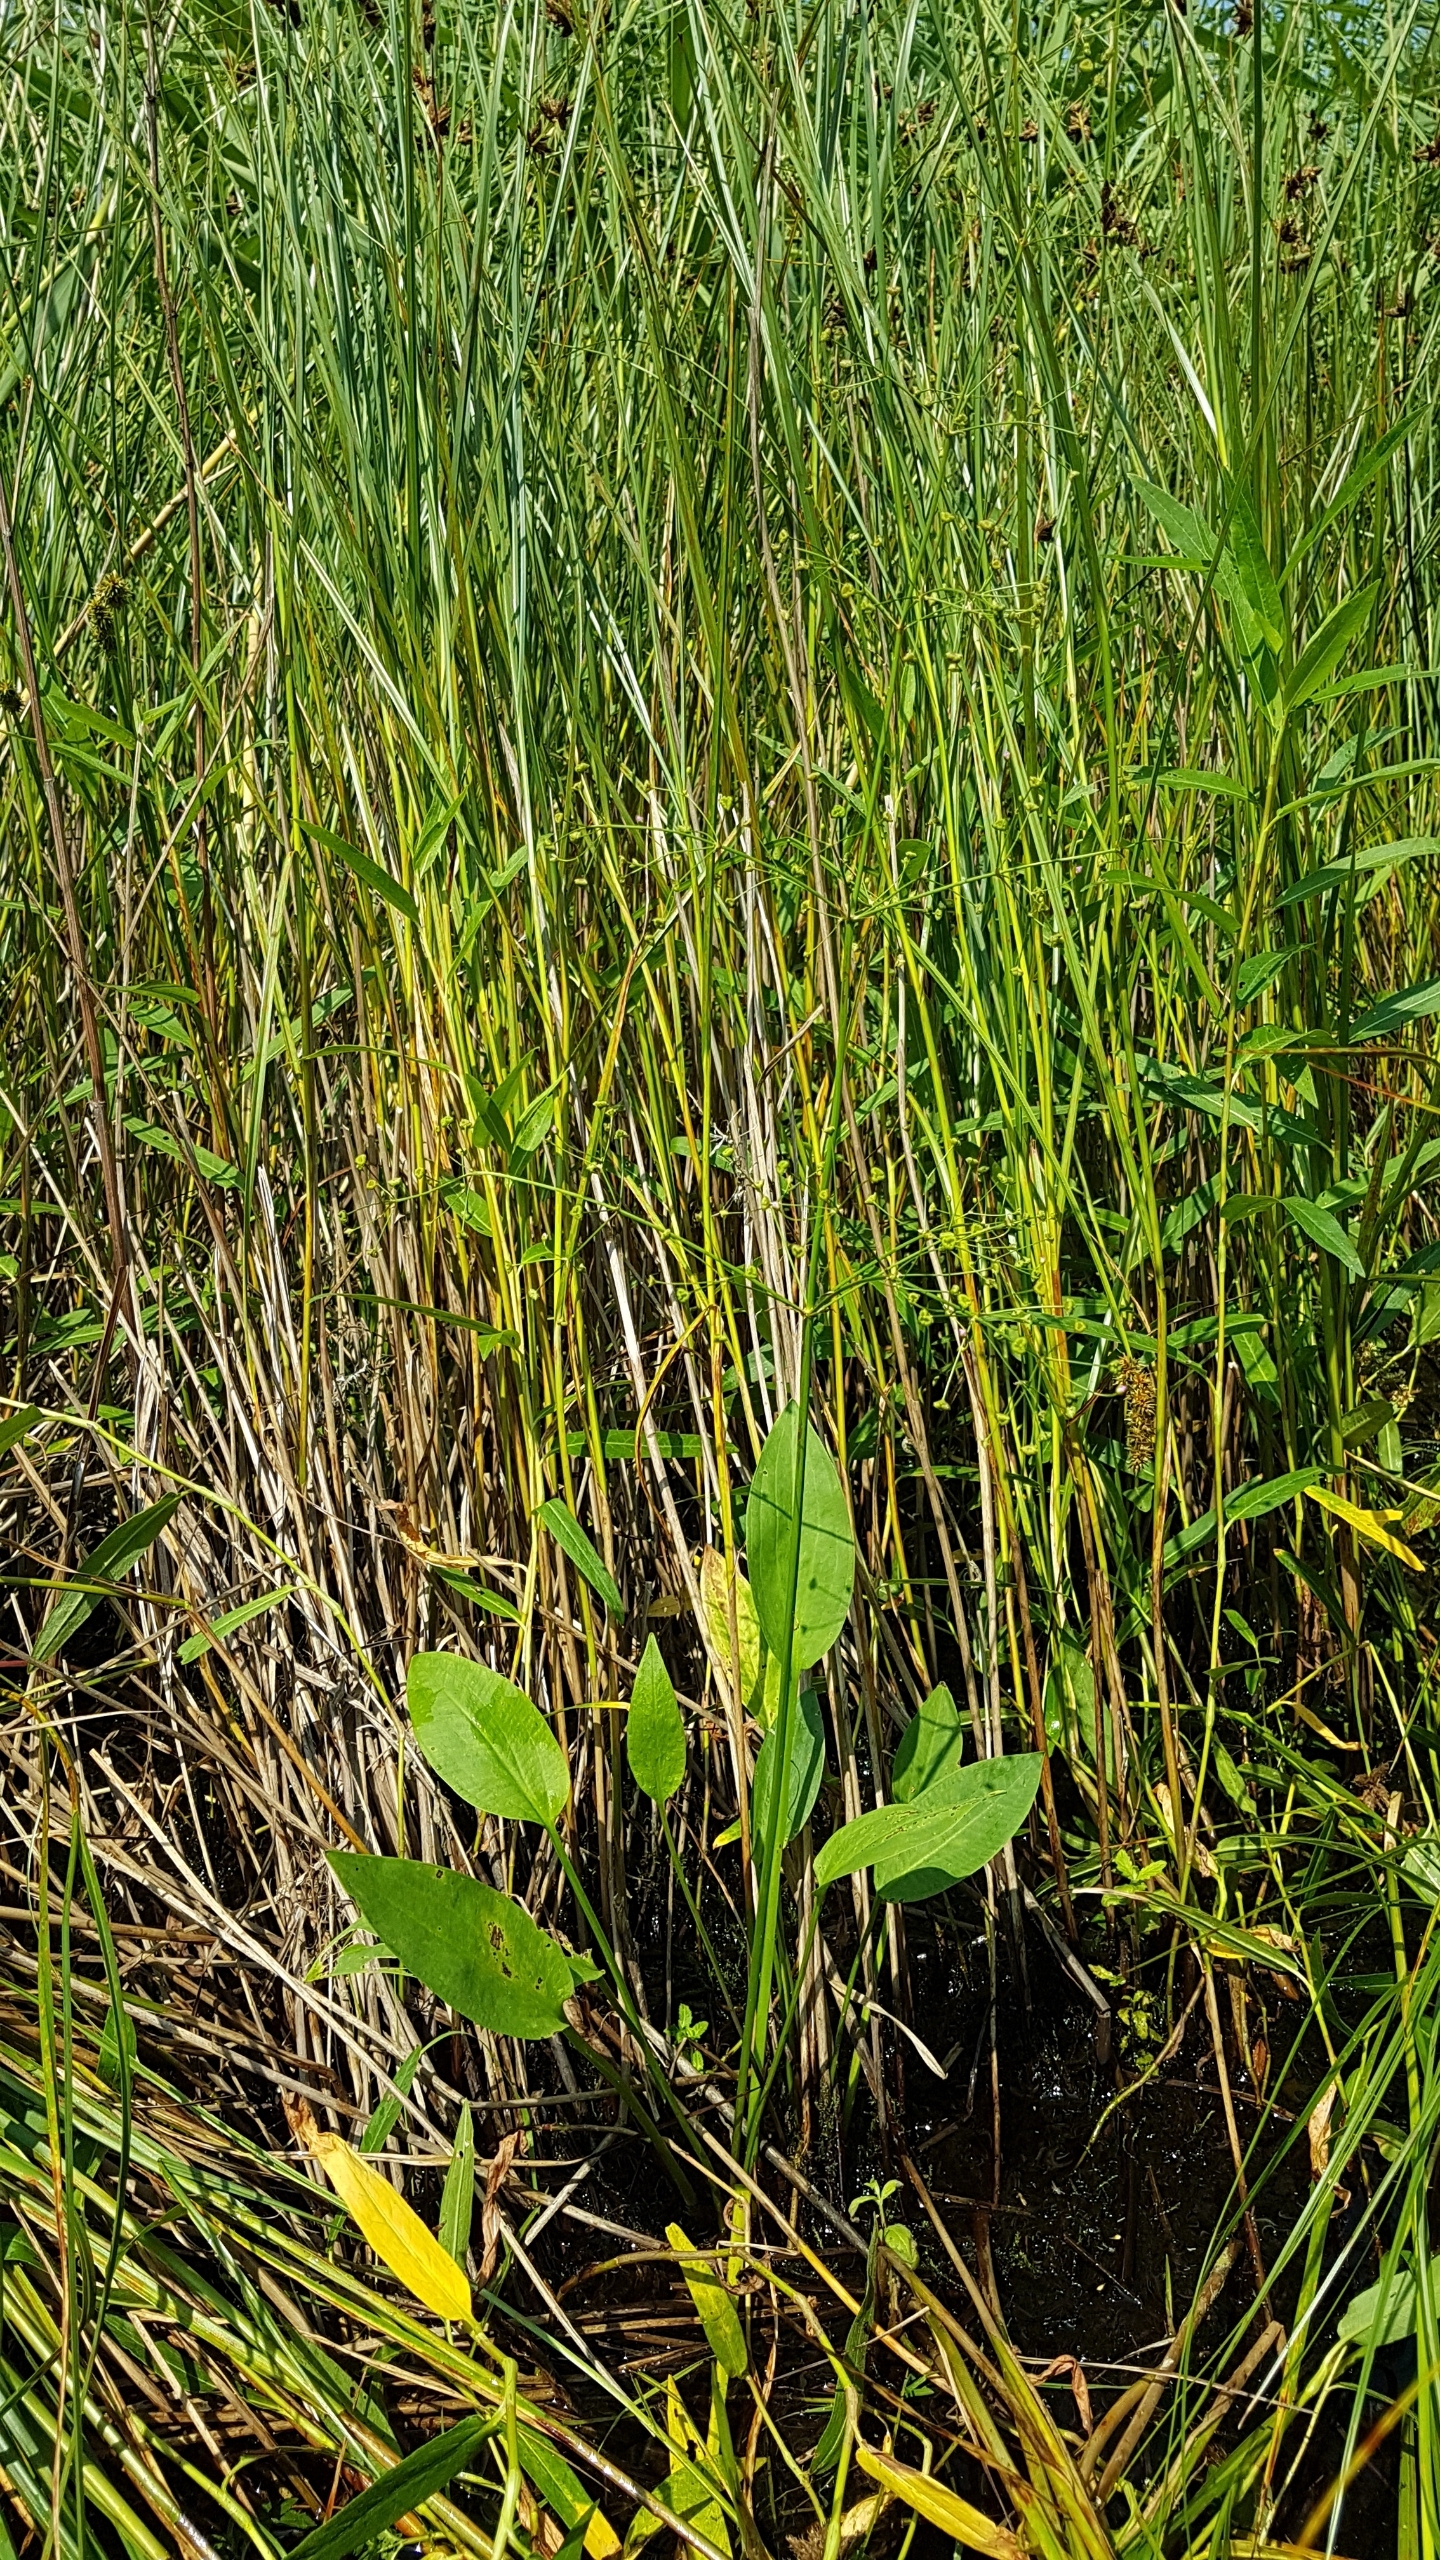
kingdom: Plantae
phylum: Tracheophyta
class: Liliopsida
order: Alismatales
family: Alismataceae
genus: Alisma
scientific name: Alisma plantago-aquatica
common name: Vejbred-skeblad
